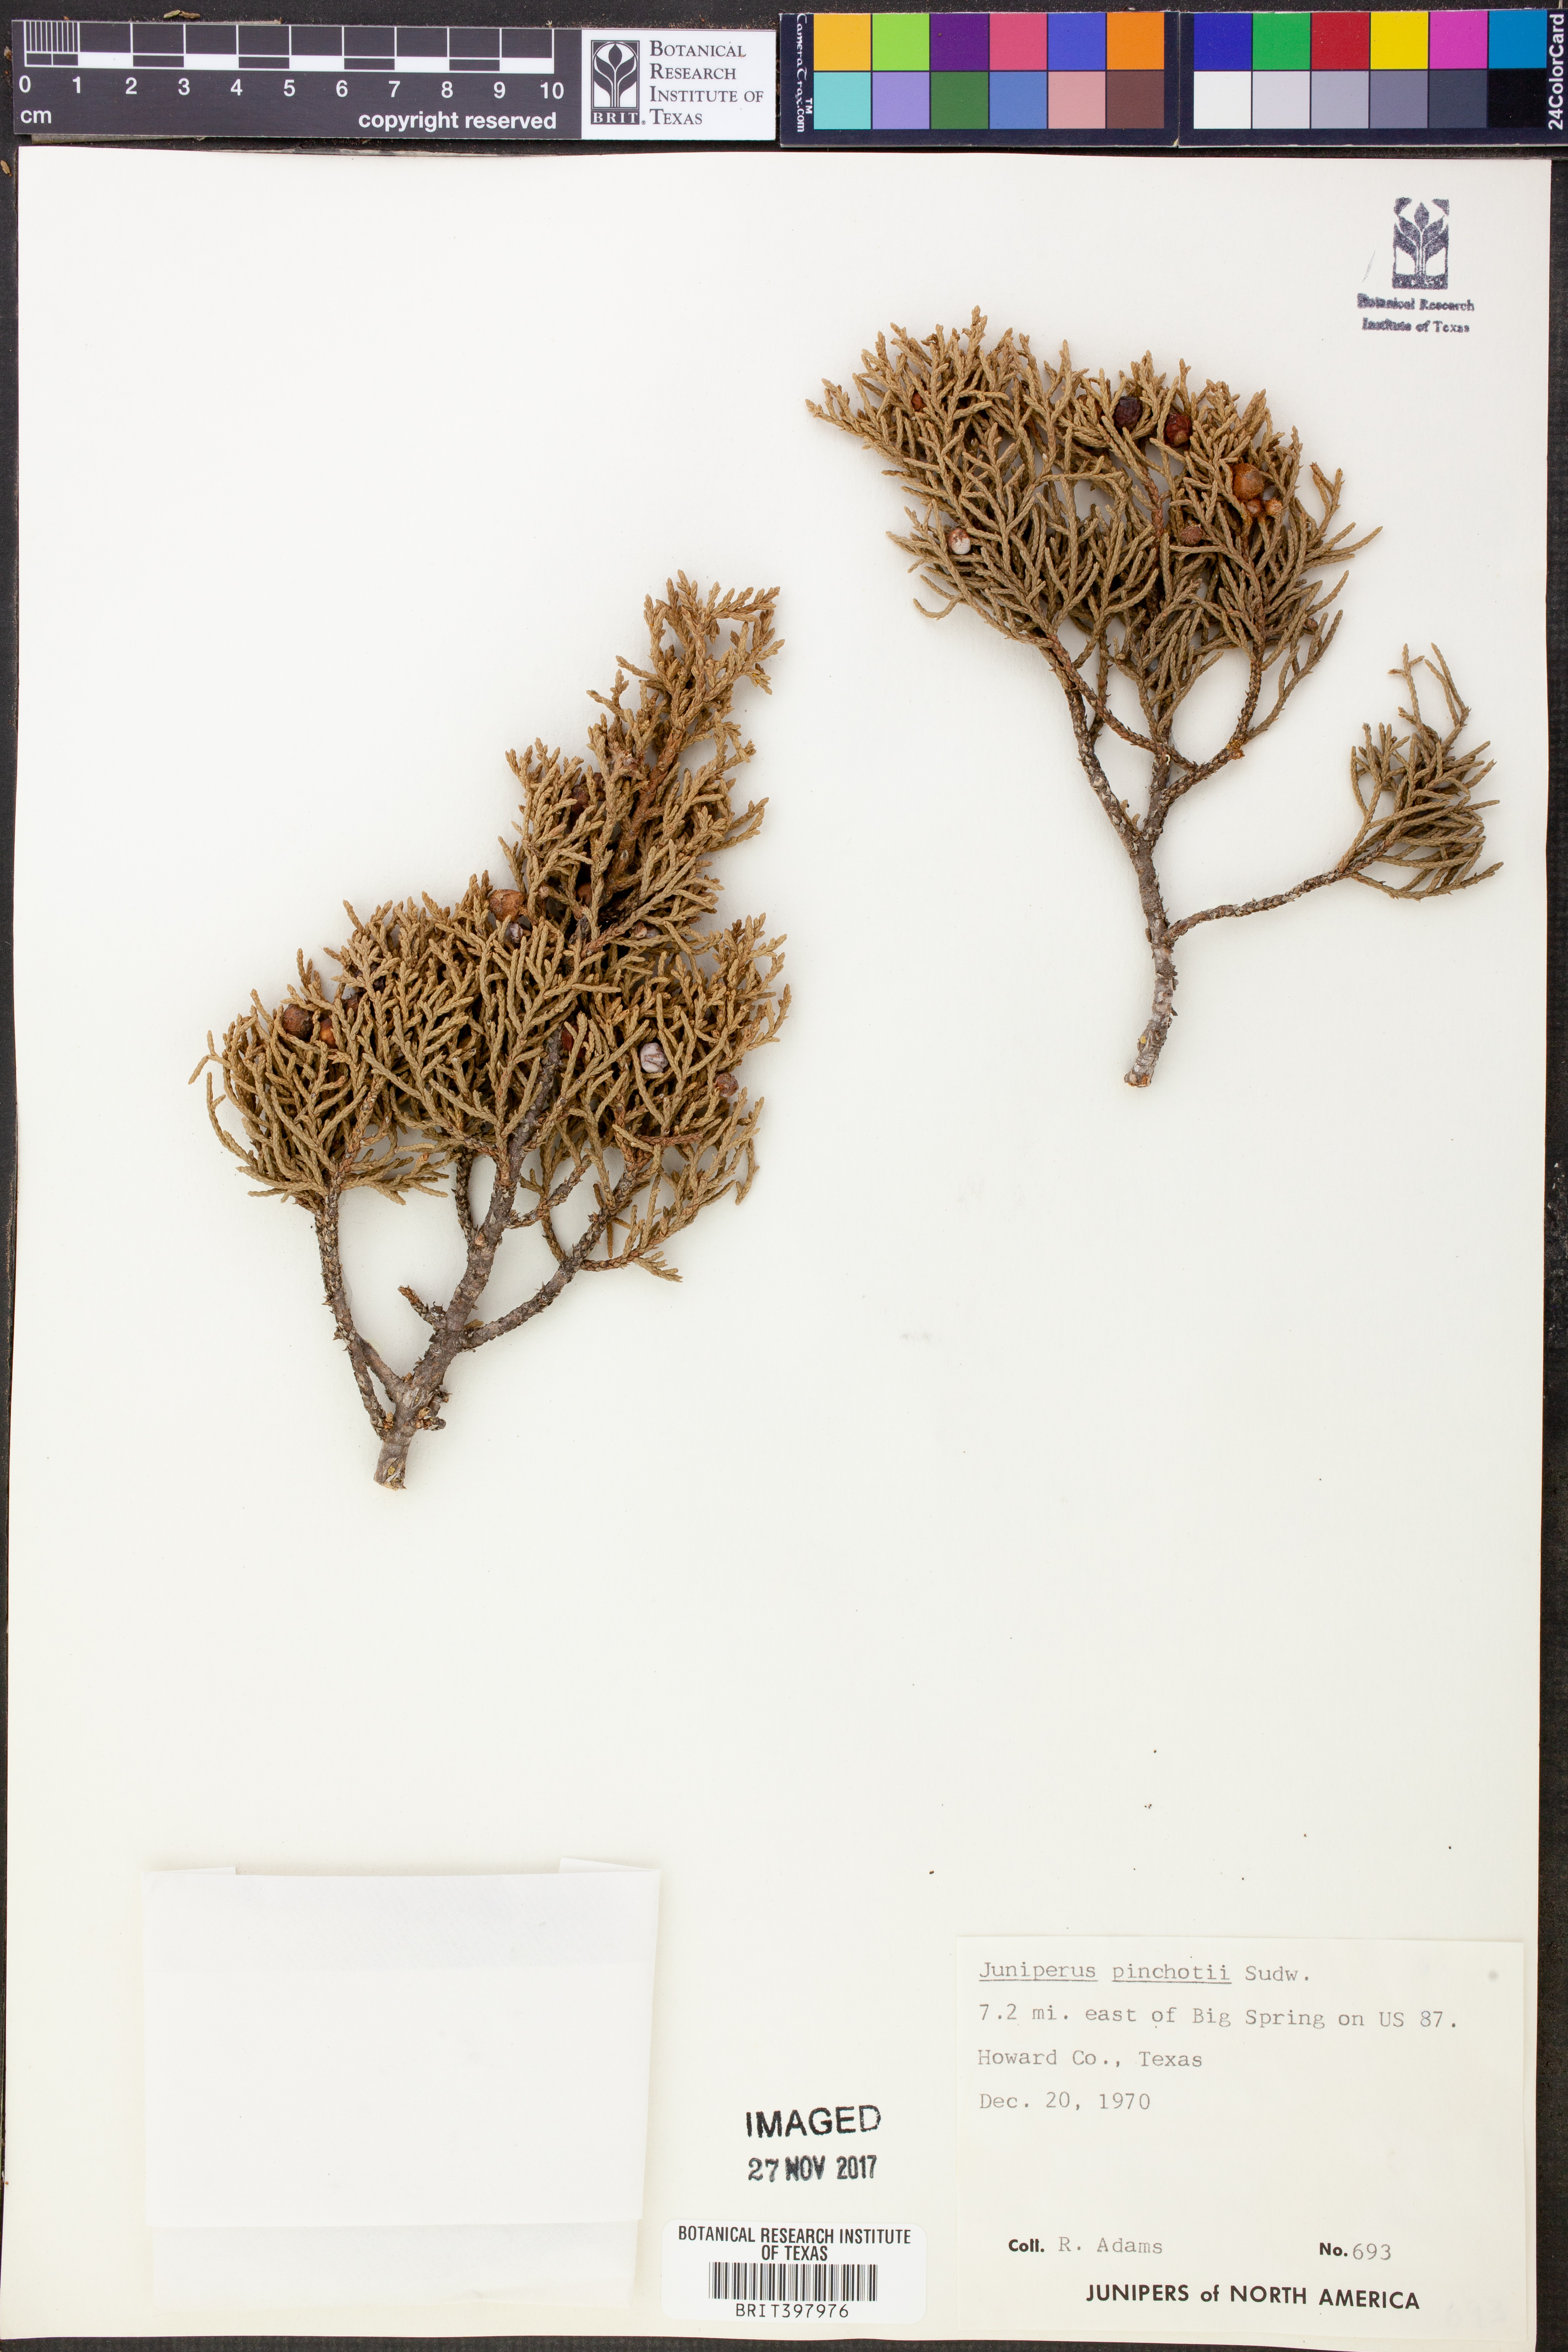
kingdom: Plantae
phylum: Tracheophyta
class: Pinopsida
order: Pinales
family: Cupressaceae
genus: Juniperus
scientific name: Juniperus pinchotii
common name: Pinchot juniper
